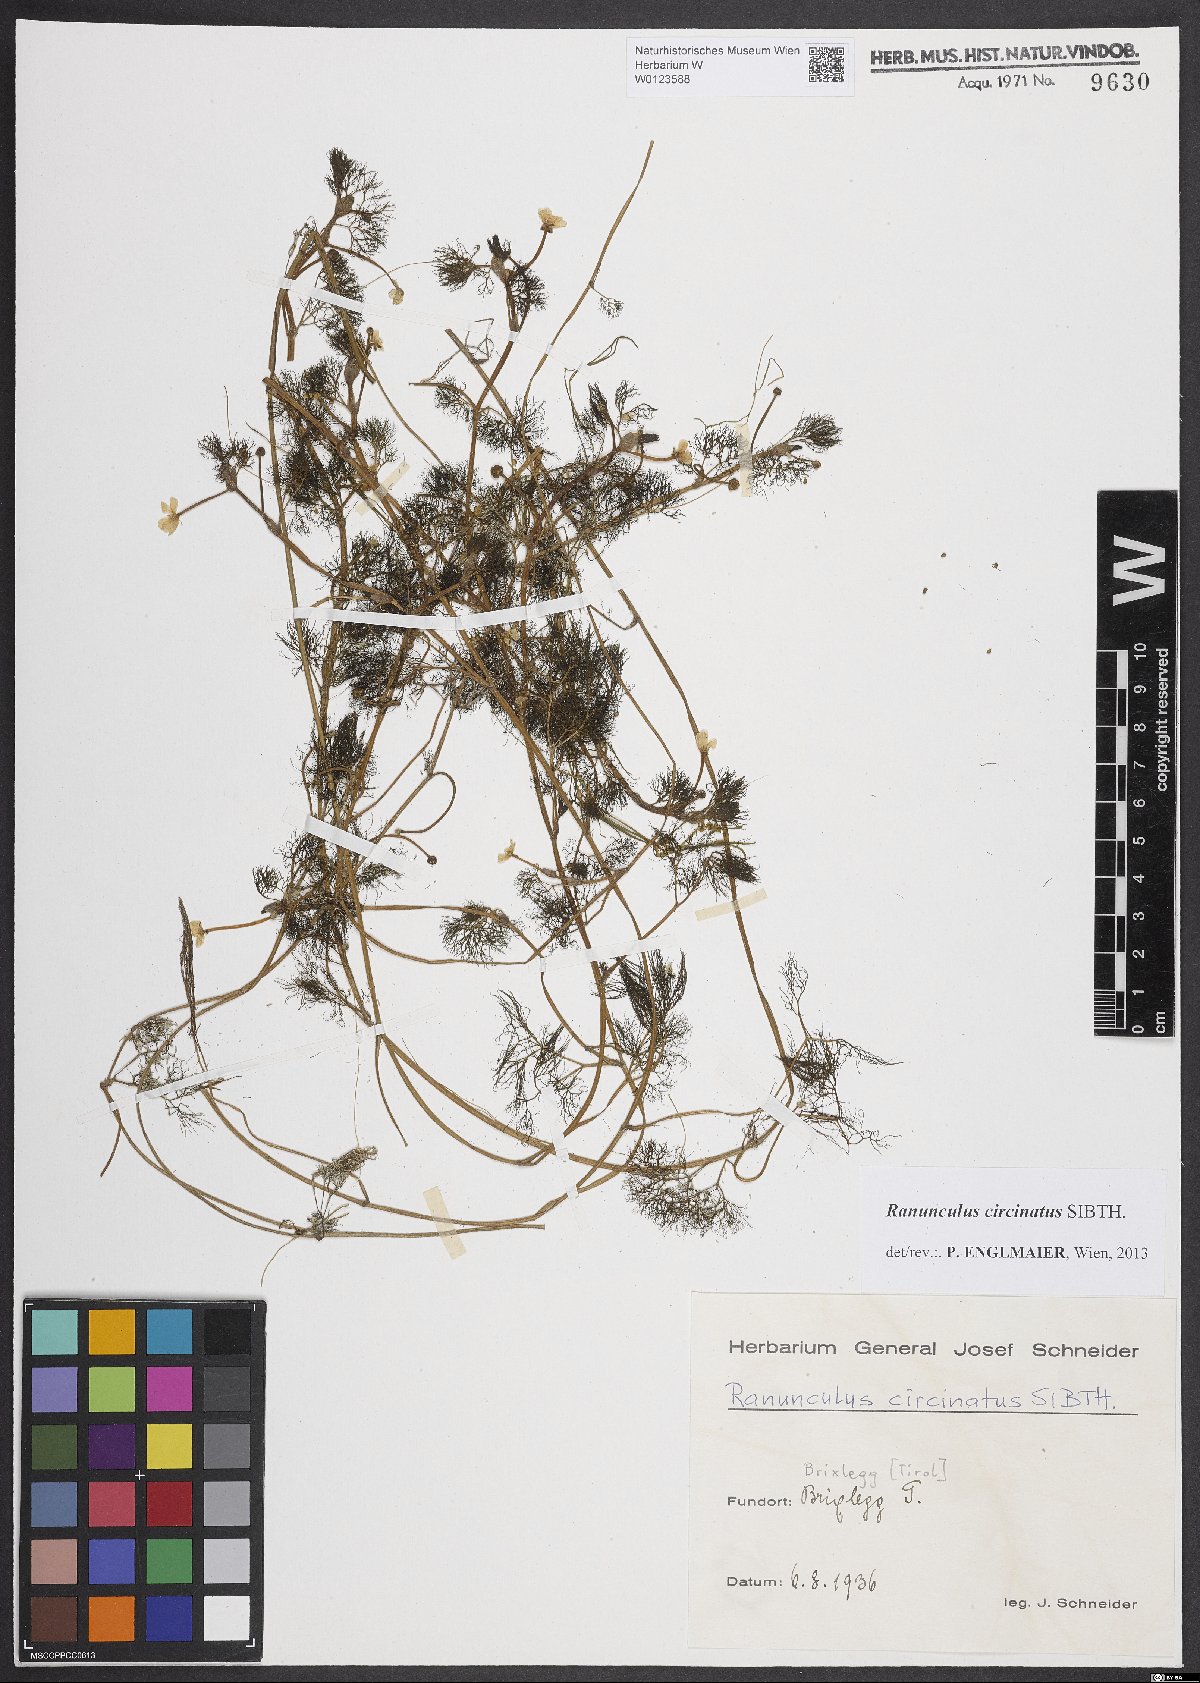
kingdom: Plantae
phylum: Tracheophyta
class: Magnoliopsida
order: Ranunculales
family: Ranunculaceae
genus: Ranunculus
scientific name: Ranunculus trichophyllus
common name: Thread-leaved water-crowfoot
